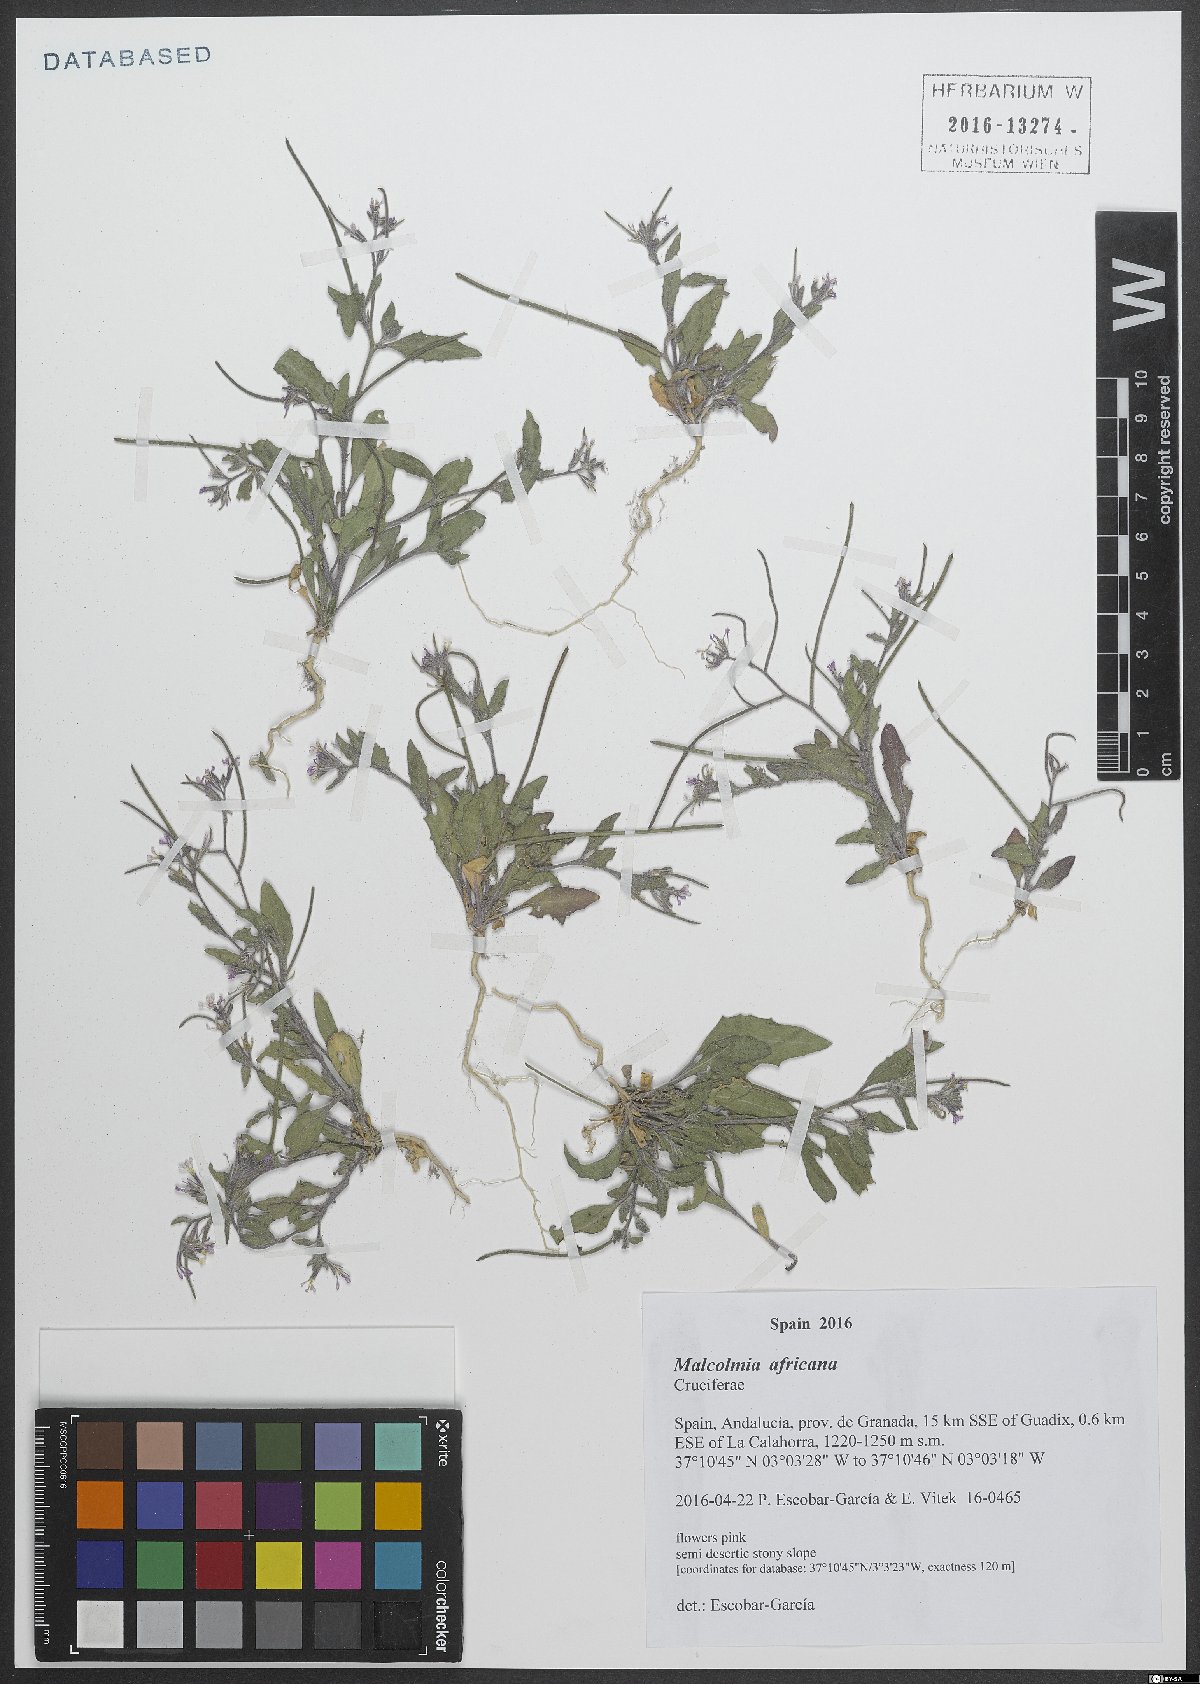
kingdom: Plantae
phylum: Tracheophyta
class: Magnoliopsida
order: Brassicales
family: Brassicaceae
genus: Malcolmia
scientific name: Malcolmia africana
